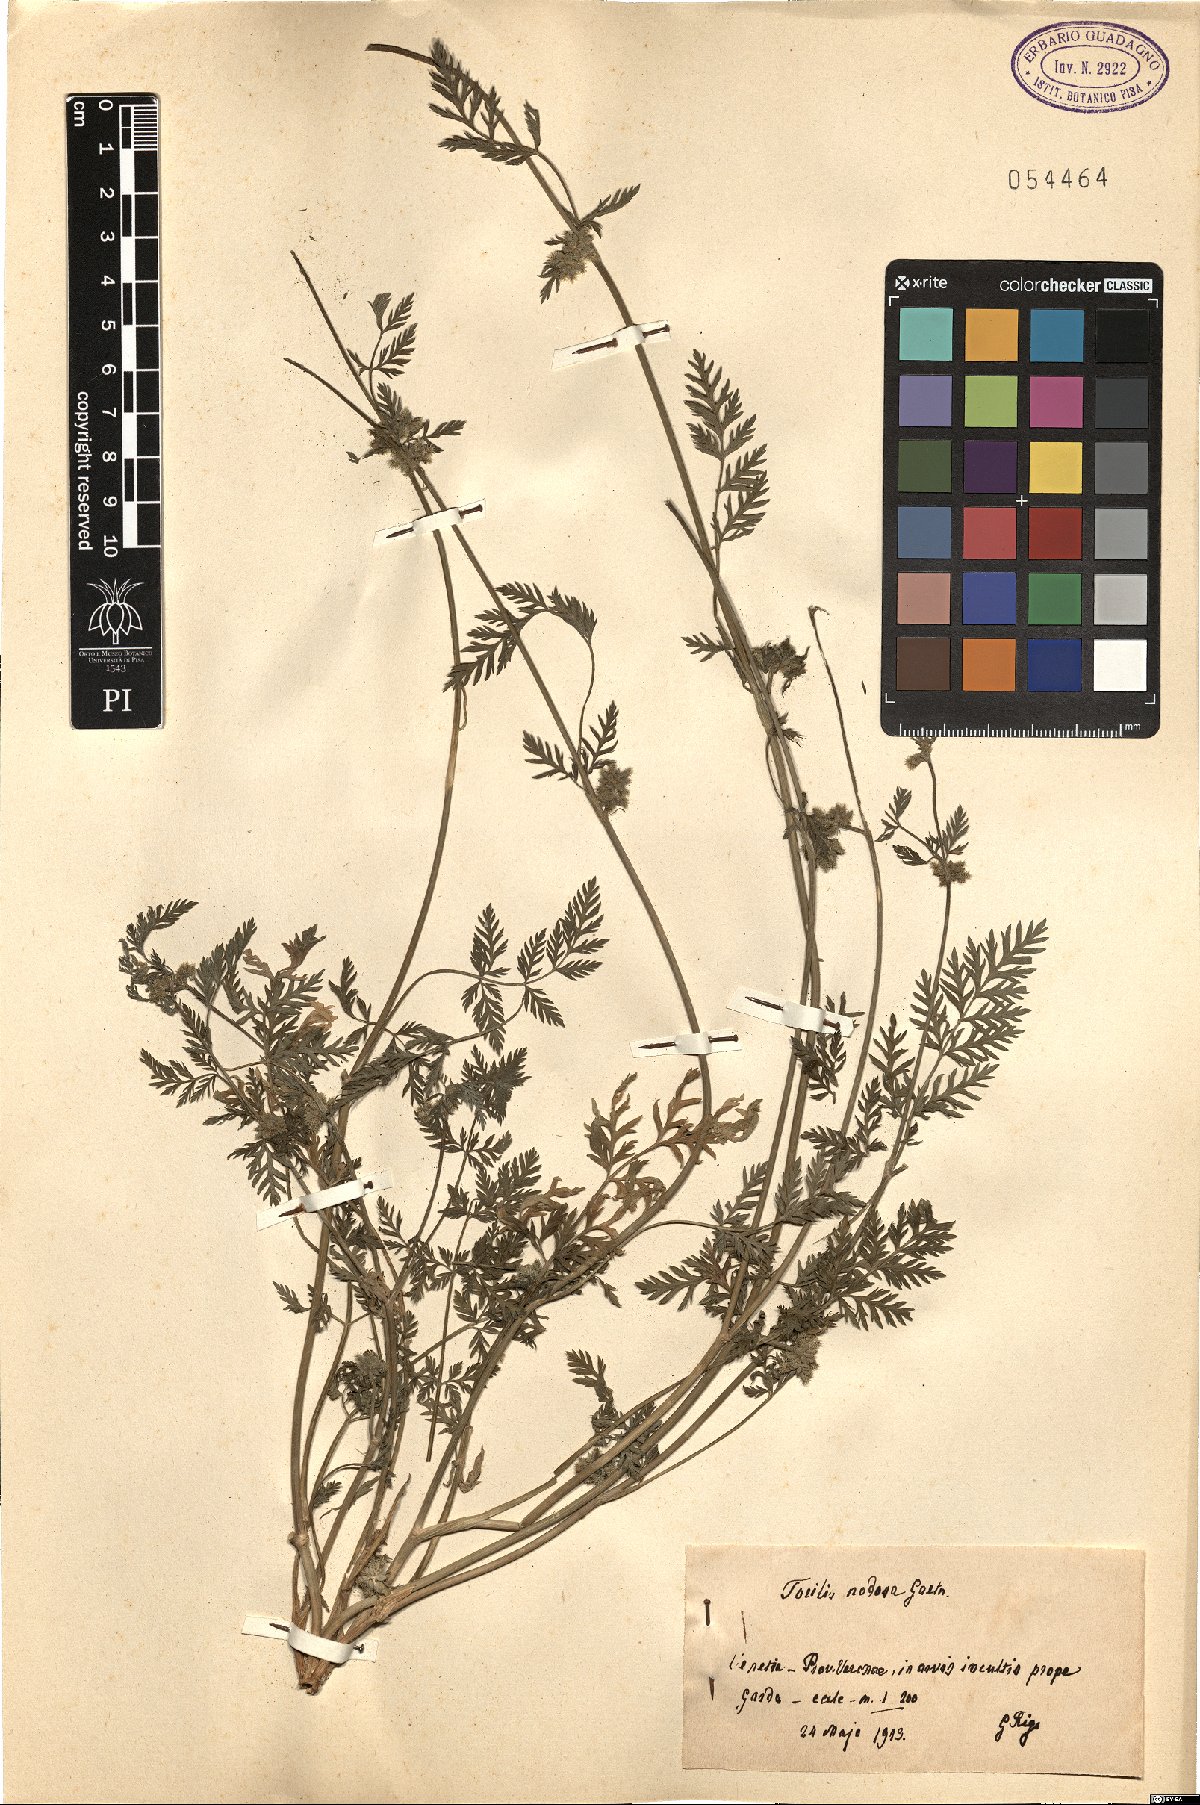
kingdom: Plantae
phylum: Tracheophyta
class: Magnoliopsida
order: Apiales
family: Apiaceae
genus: Torilis
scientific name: Torilis nodosa
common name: Knotted hedge-parsley
